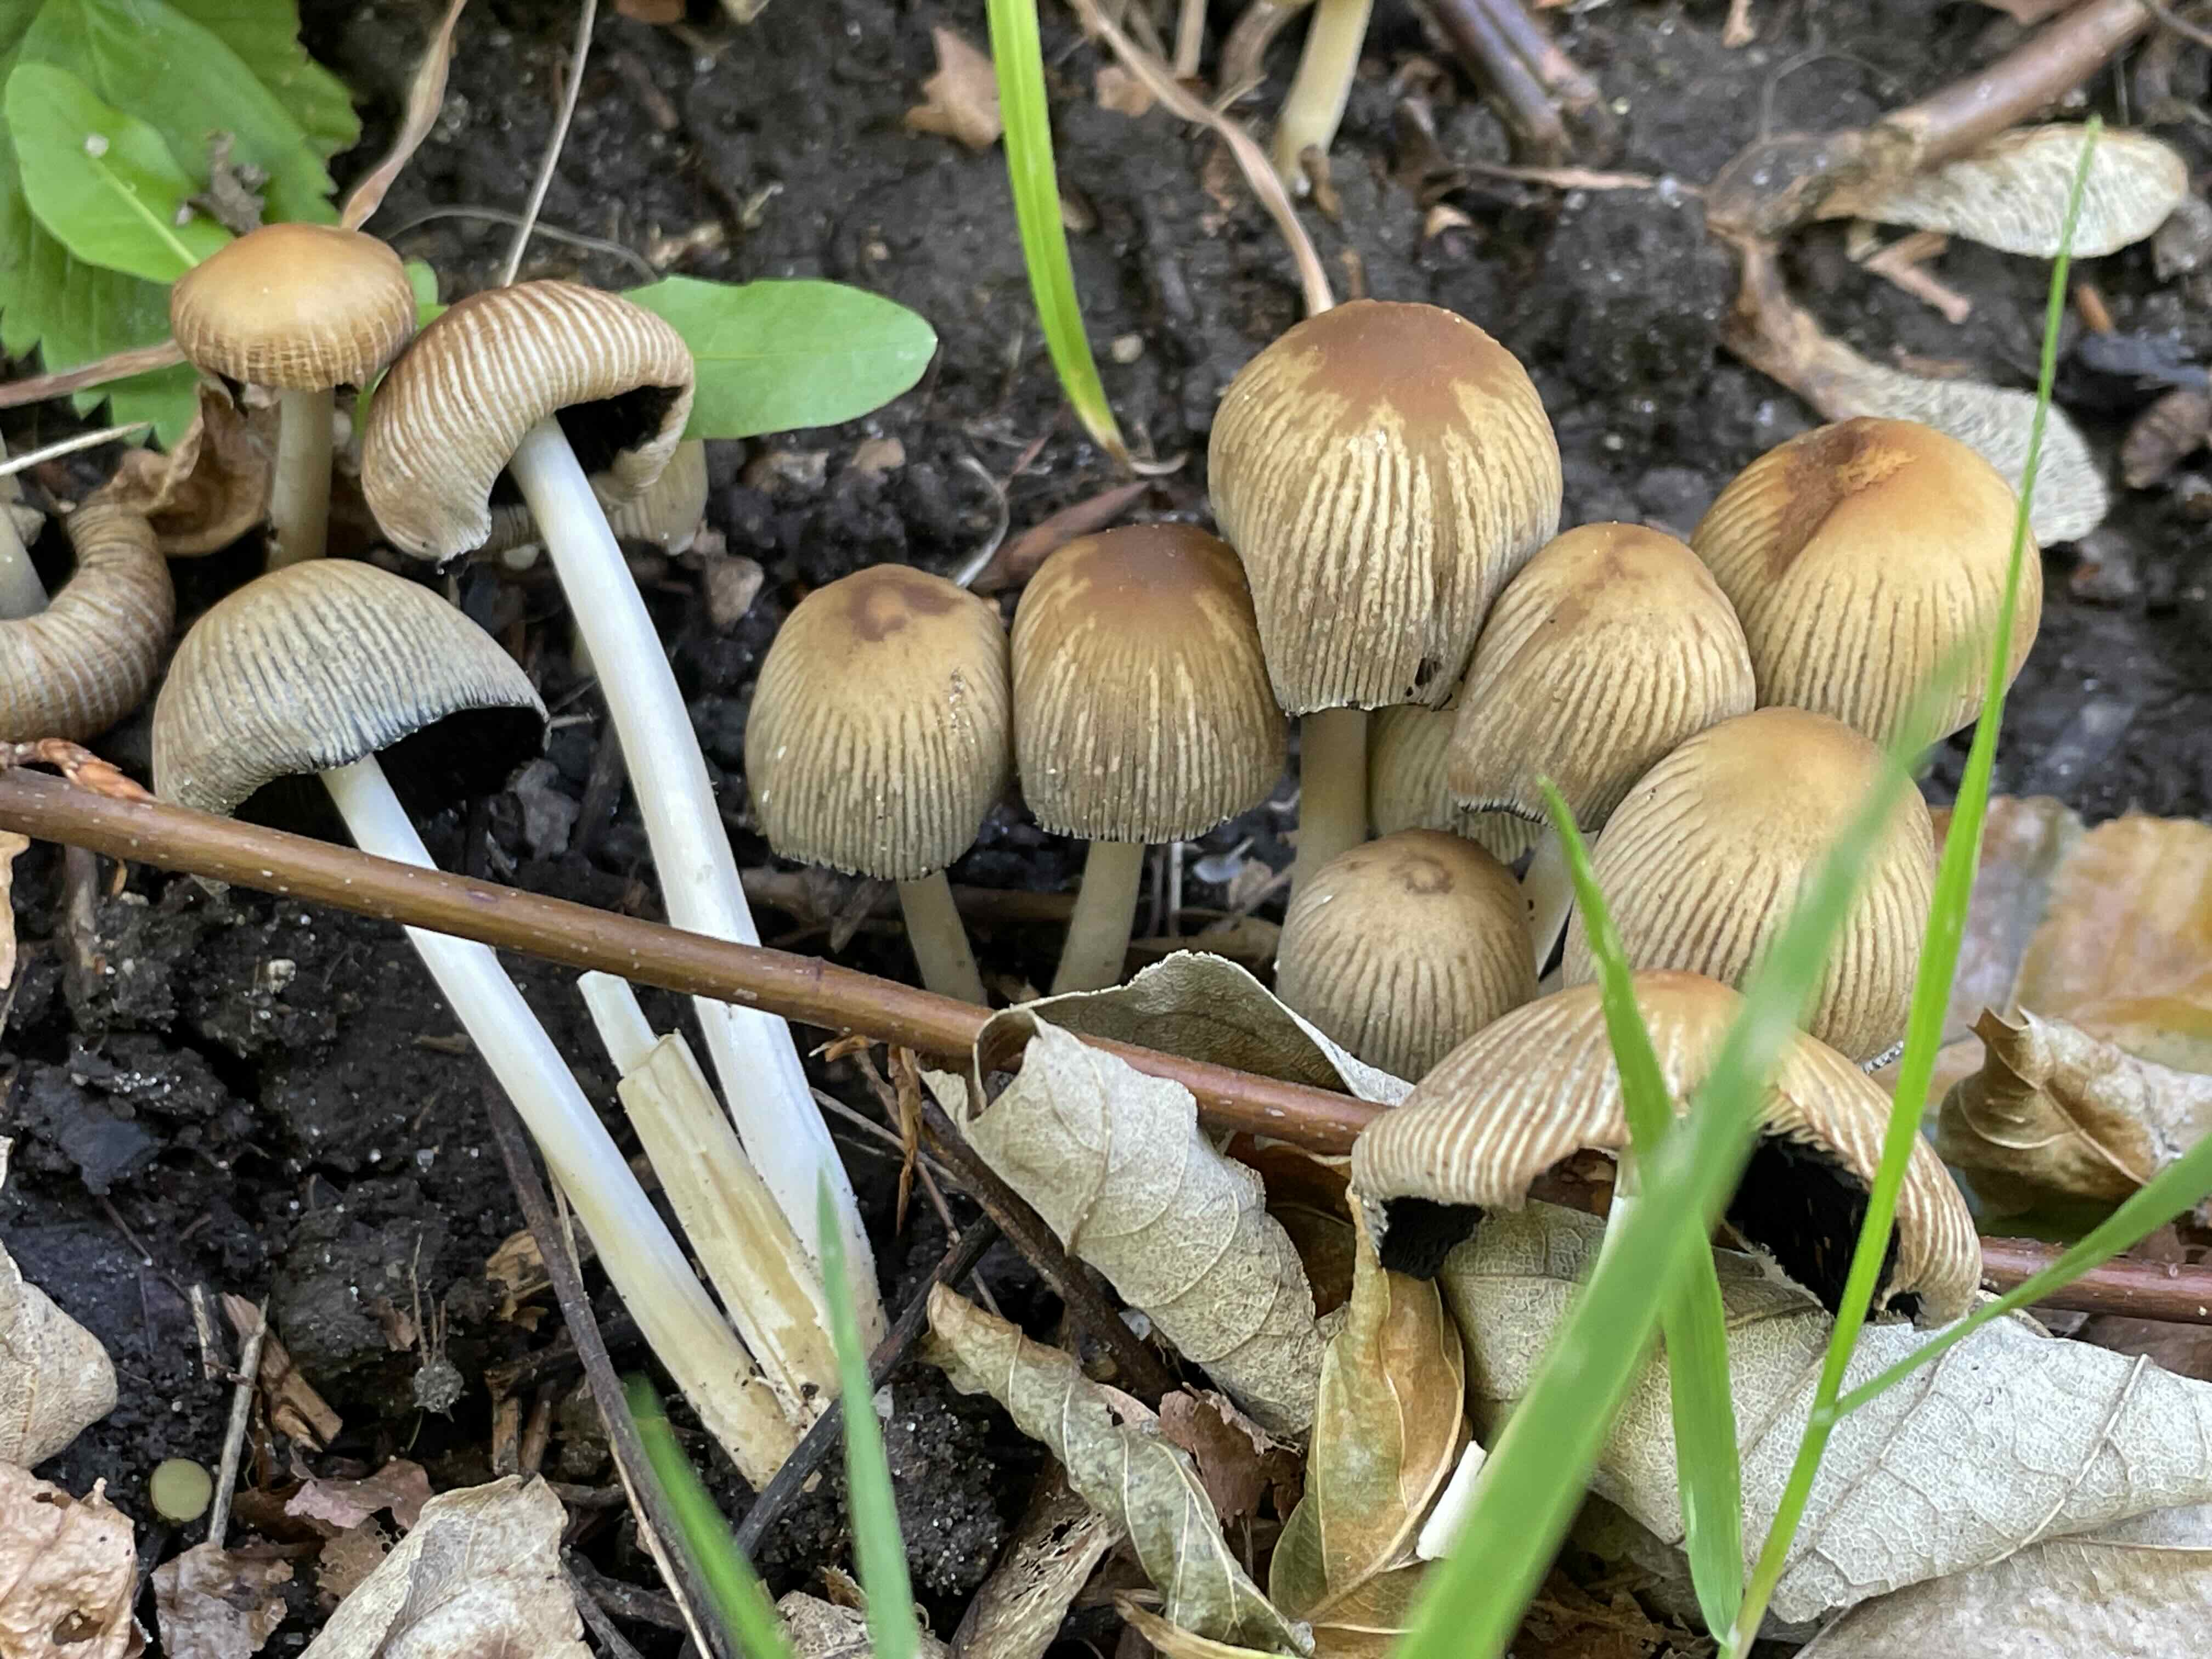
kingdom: Fungi
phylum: Basidiomycota
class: Agaricomycetes
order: Agaricales
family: Psathyrellaceae
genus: Coprinellus
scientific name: Coprinellus micaceus
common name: glimmer-blækhat
